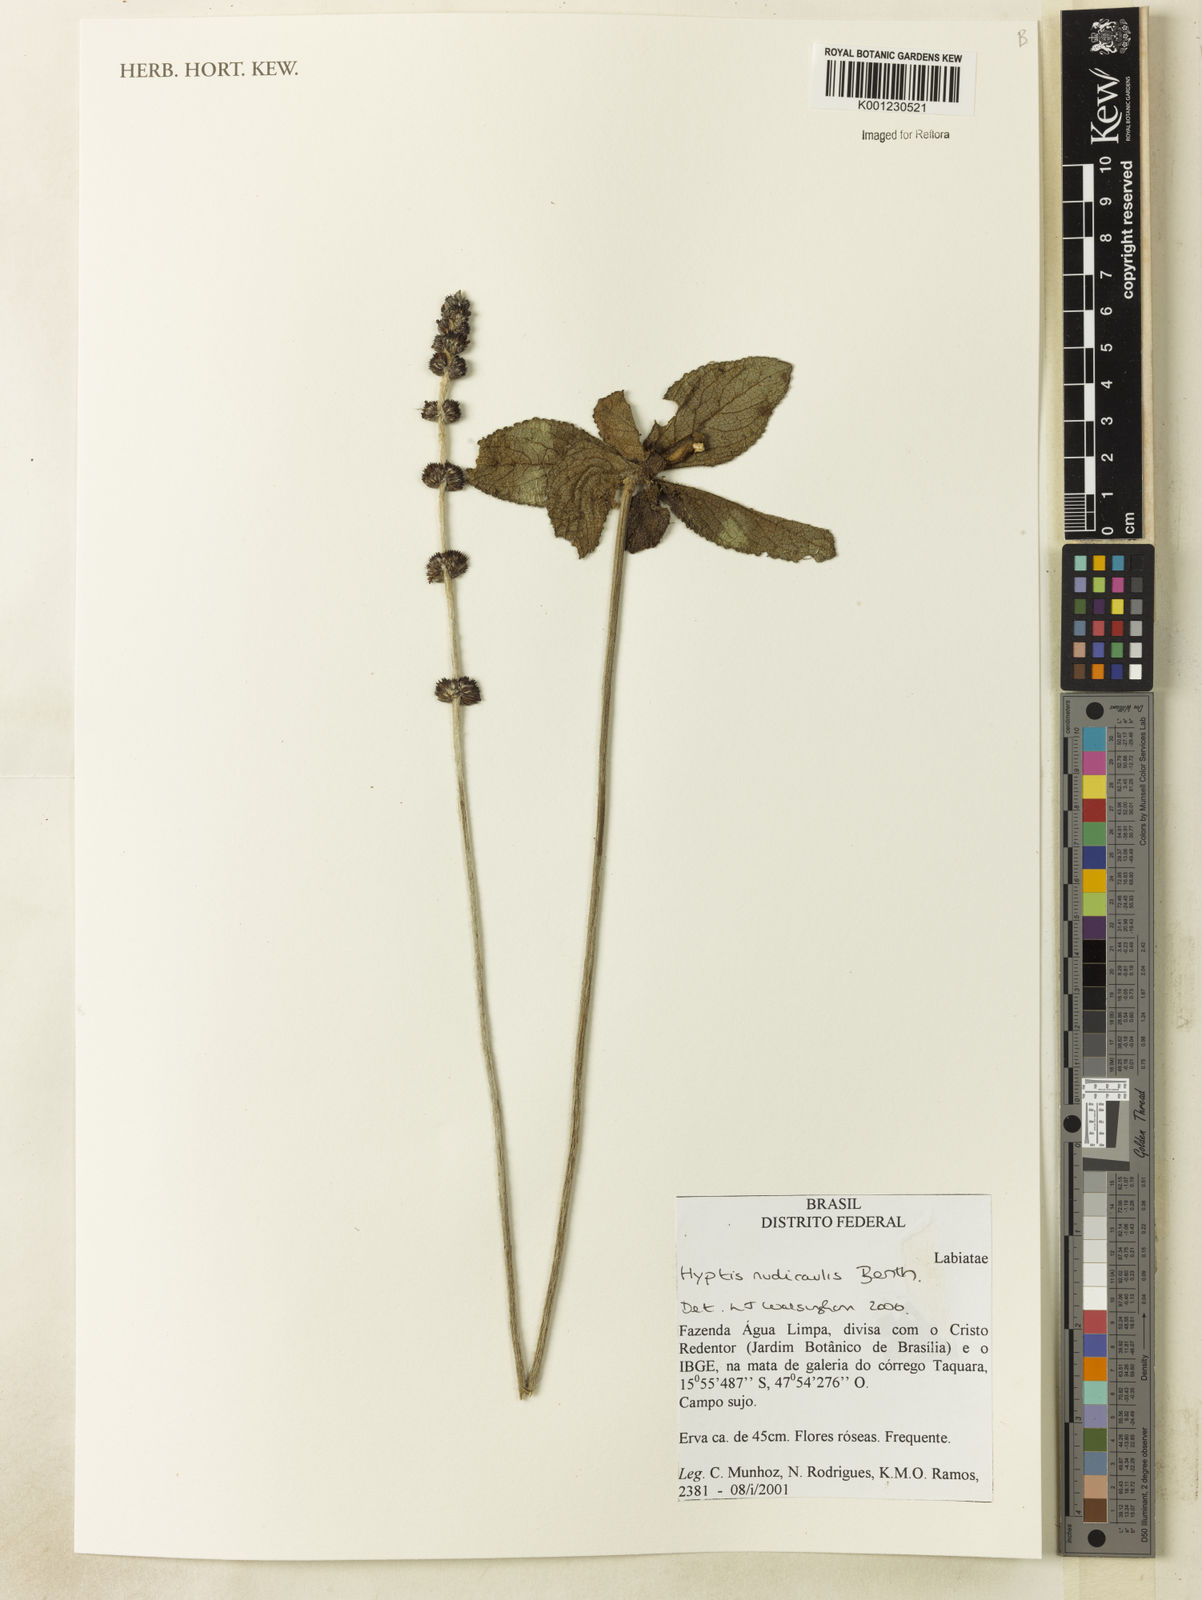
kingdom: Plantae
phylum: Tracheophyta
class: Magnoliopsida
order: Lamiales
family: Lamiaceae
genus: Hyptis
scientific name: Hyptis nudicaulis
